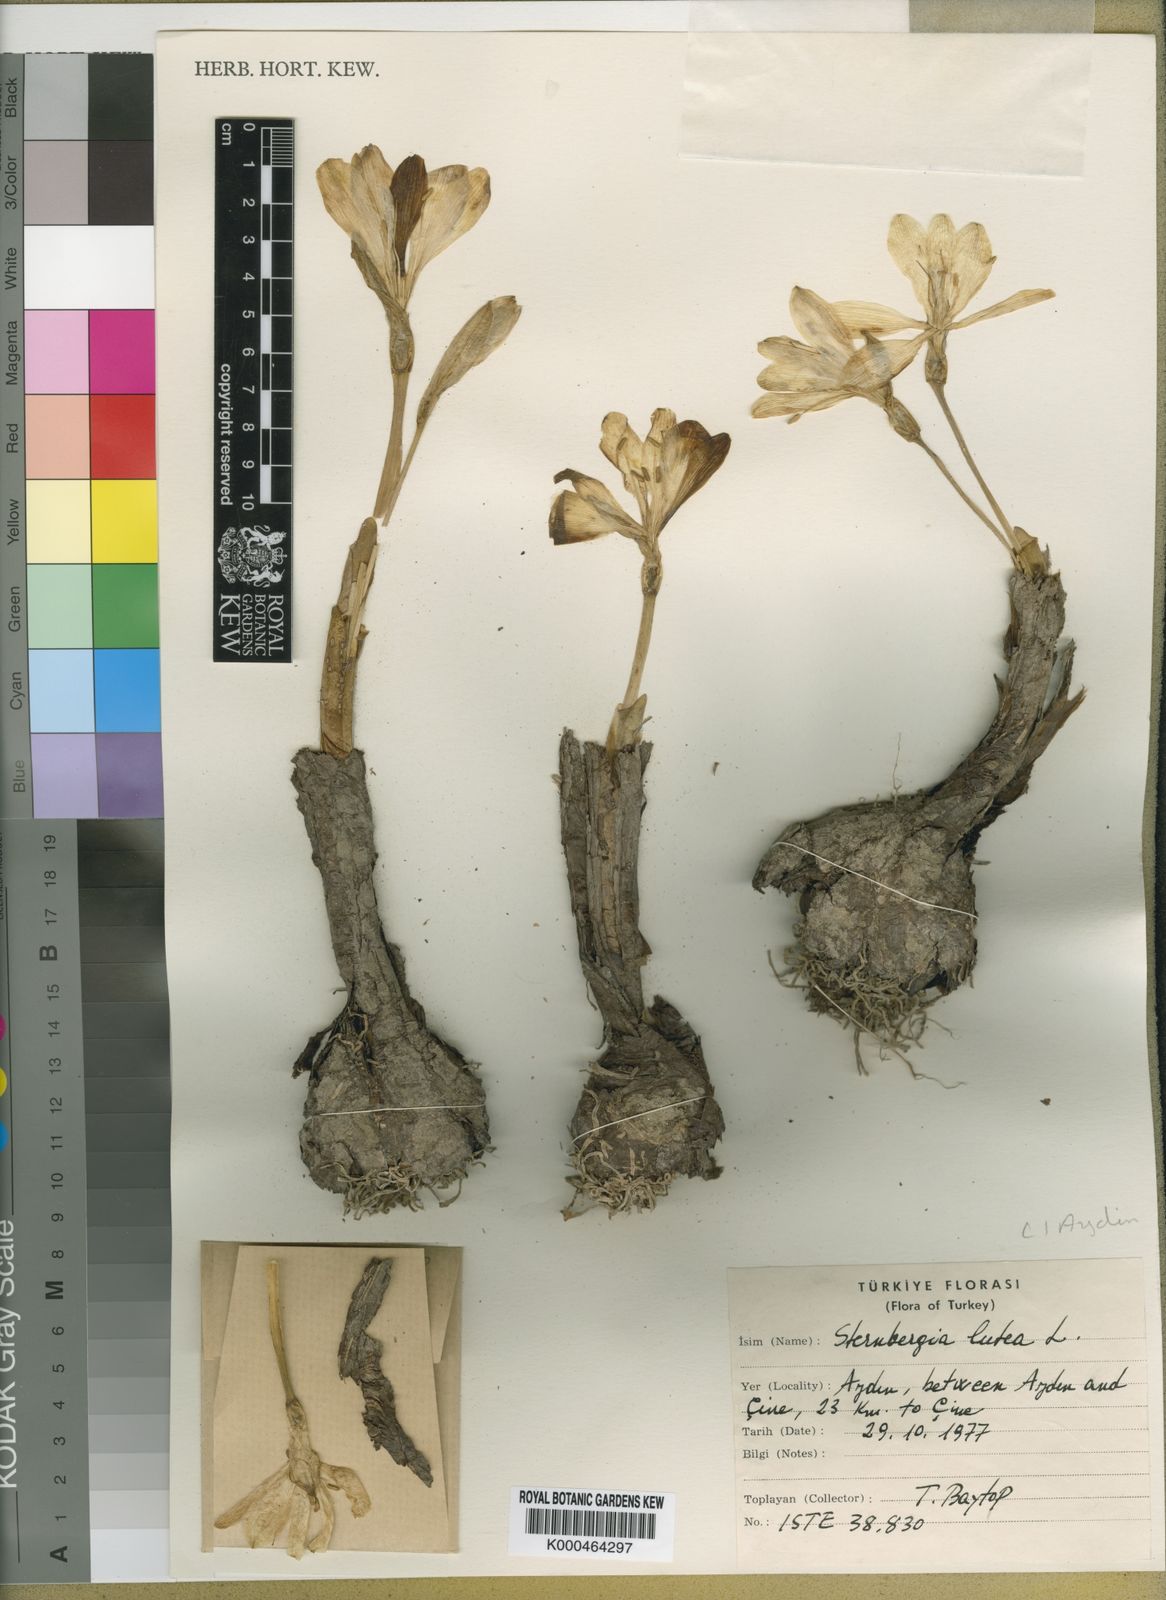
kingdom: Plantae
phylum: Tracheophyta
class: Liliopsida
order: Asparagales
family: Amaryllidaceae
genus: Sternbergia
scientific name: Sternbergia
